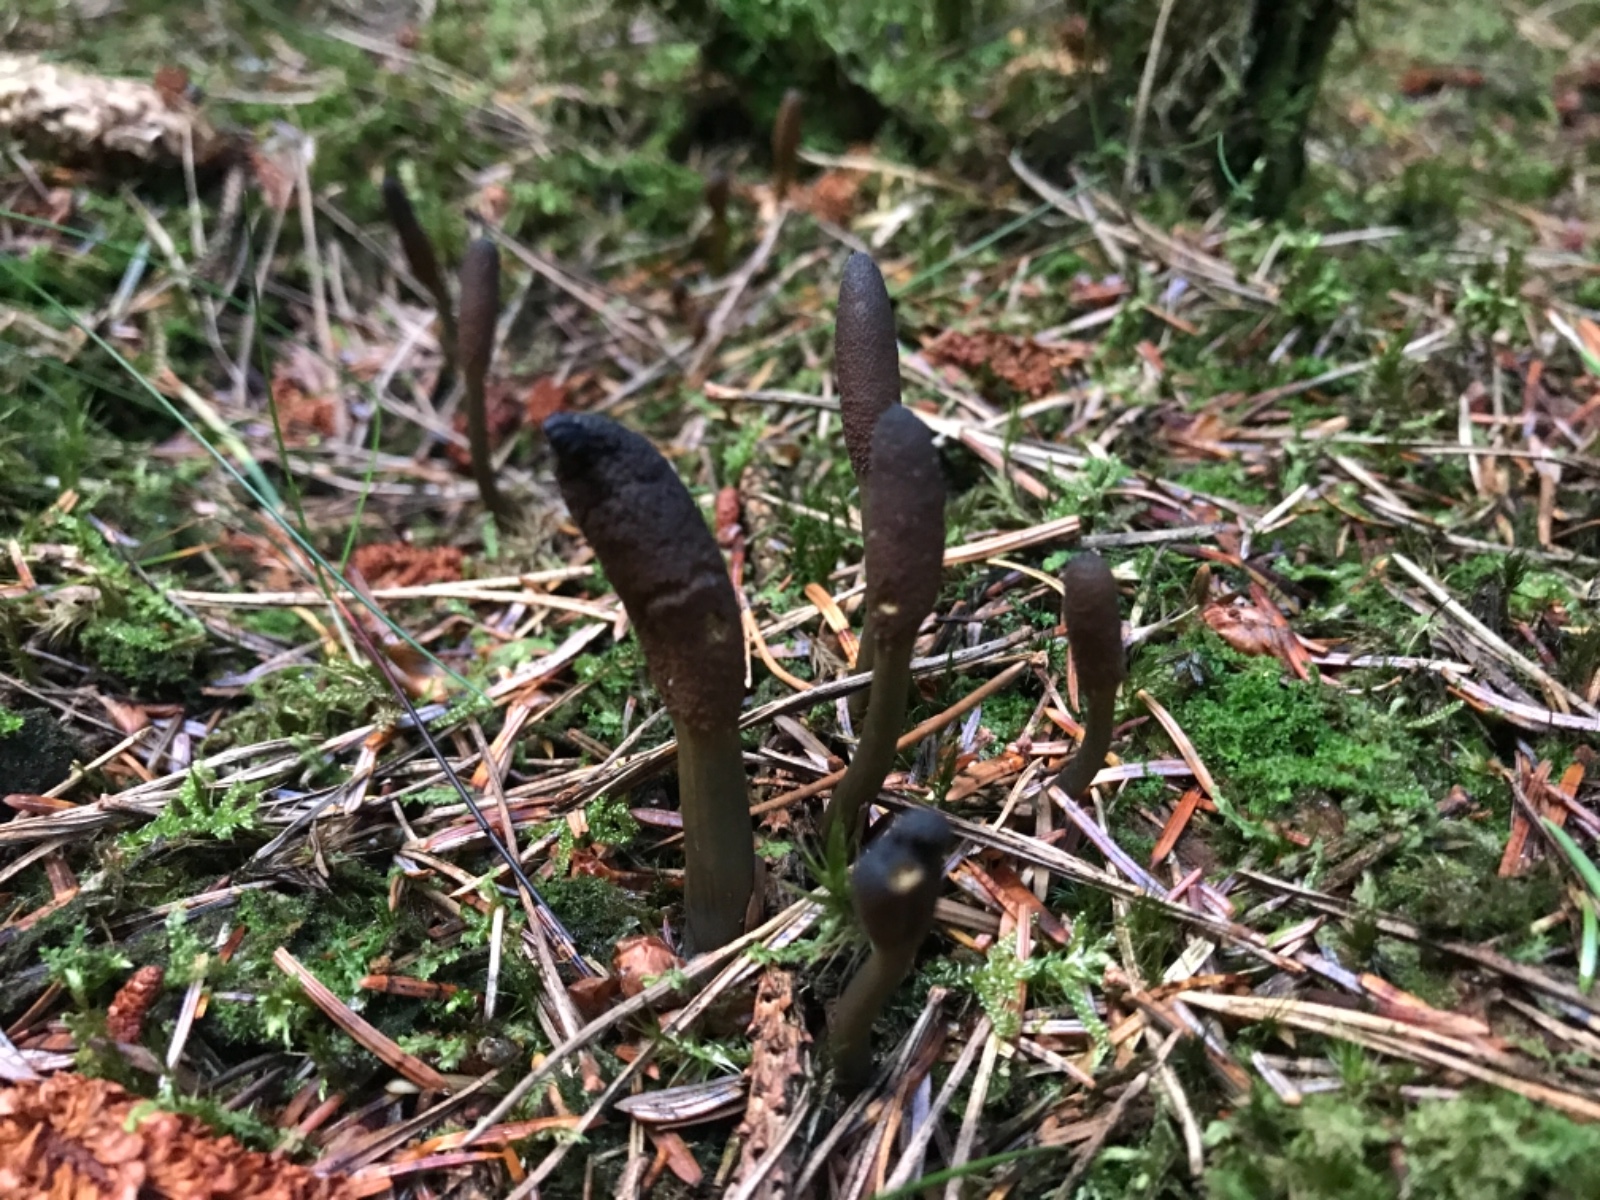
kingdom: Fungi
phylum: Ascomycota
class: Sordariomycetes
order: Hypocreales
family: Ophiocordycipitaceae
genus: Tolypocladium
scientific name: Tolypocladium ophioglossoides
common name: slank snyltekølle
